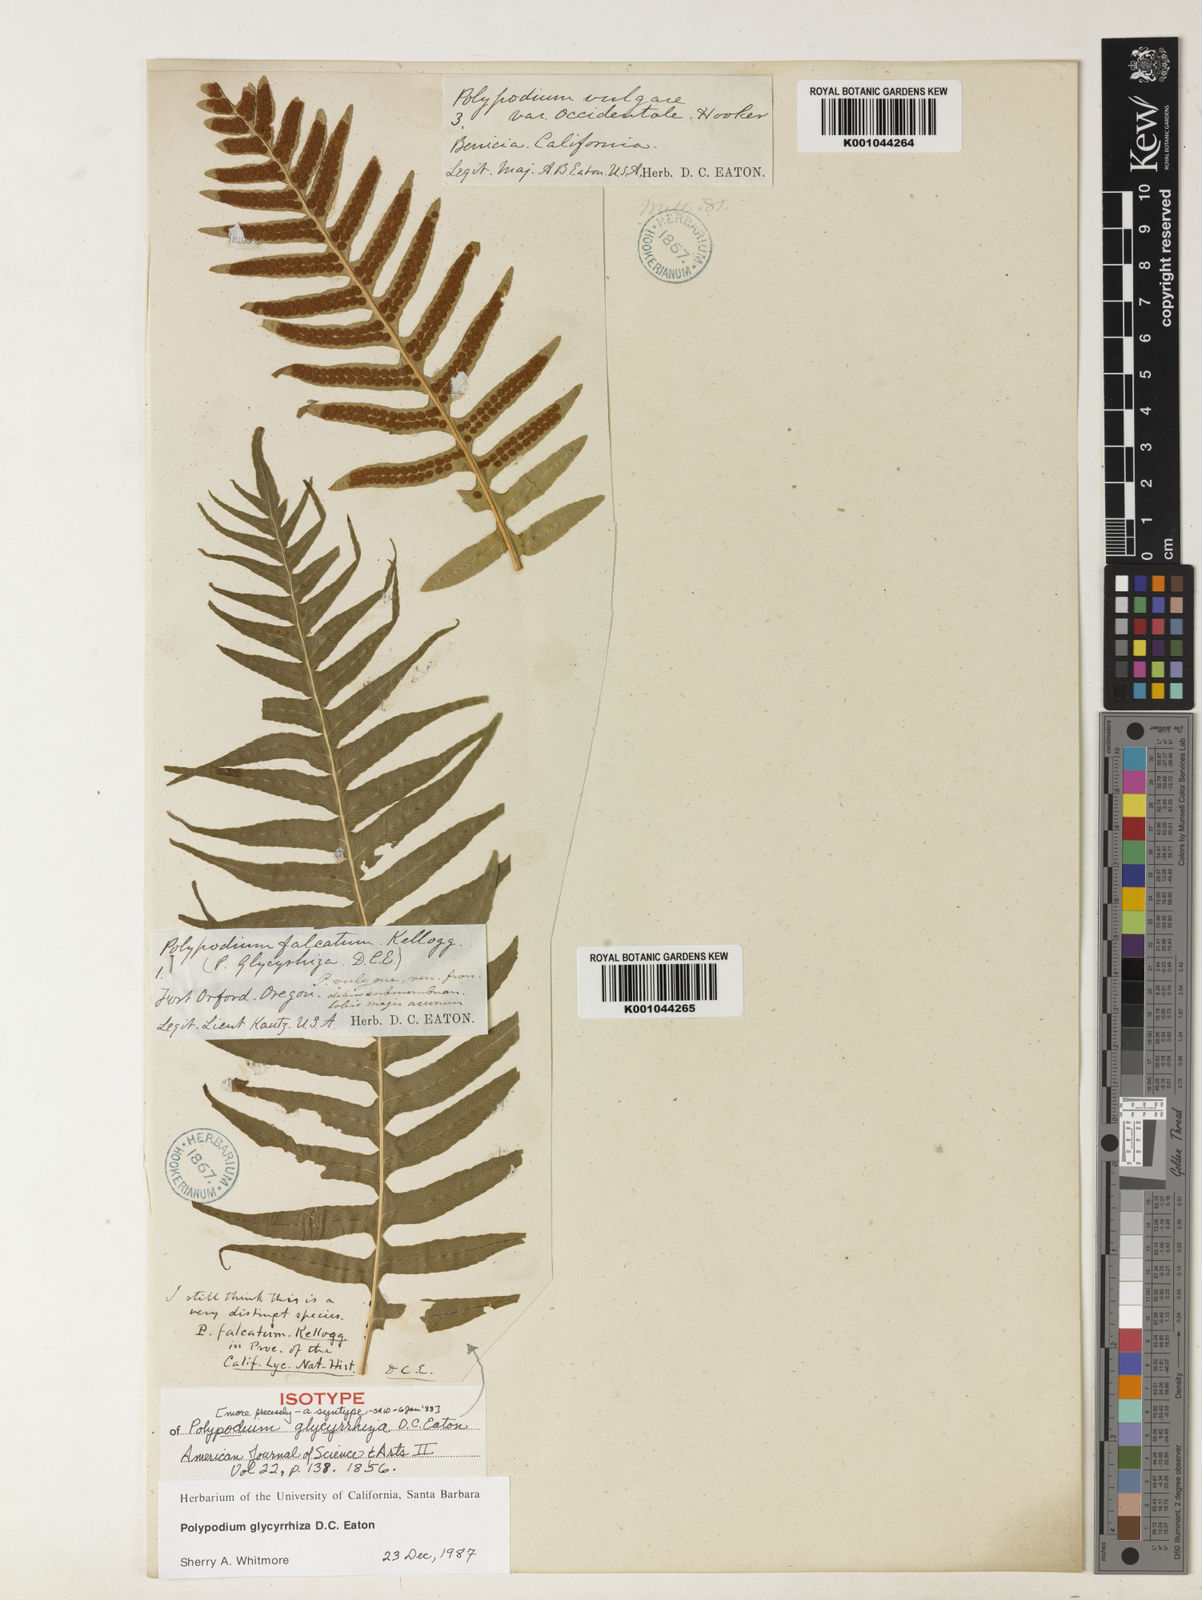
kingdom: Plantae
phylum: Tracheophyta
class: Polypodiopsida
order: Polypodiales
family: Polypodiaceae
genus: Polypodium
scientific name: Polypodium glycyrrhiza
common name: Licorice fern
